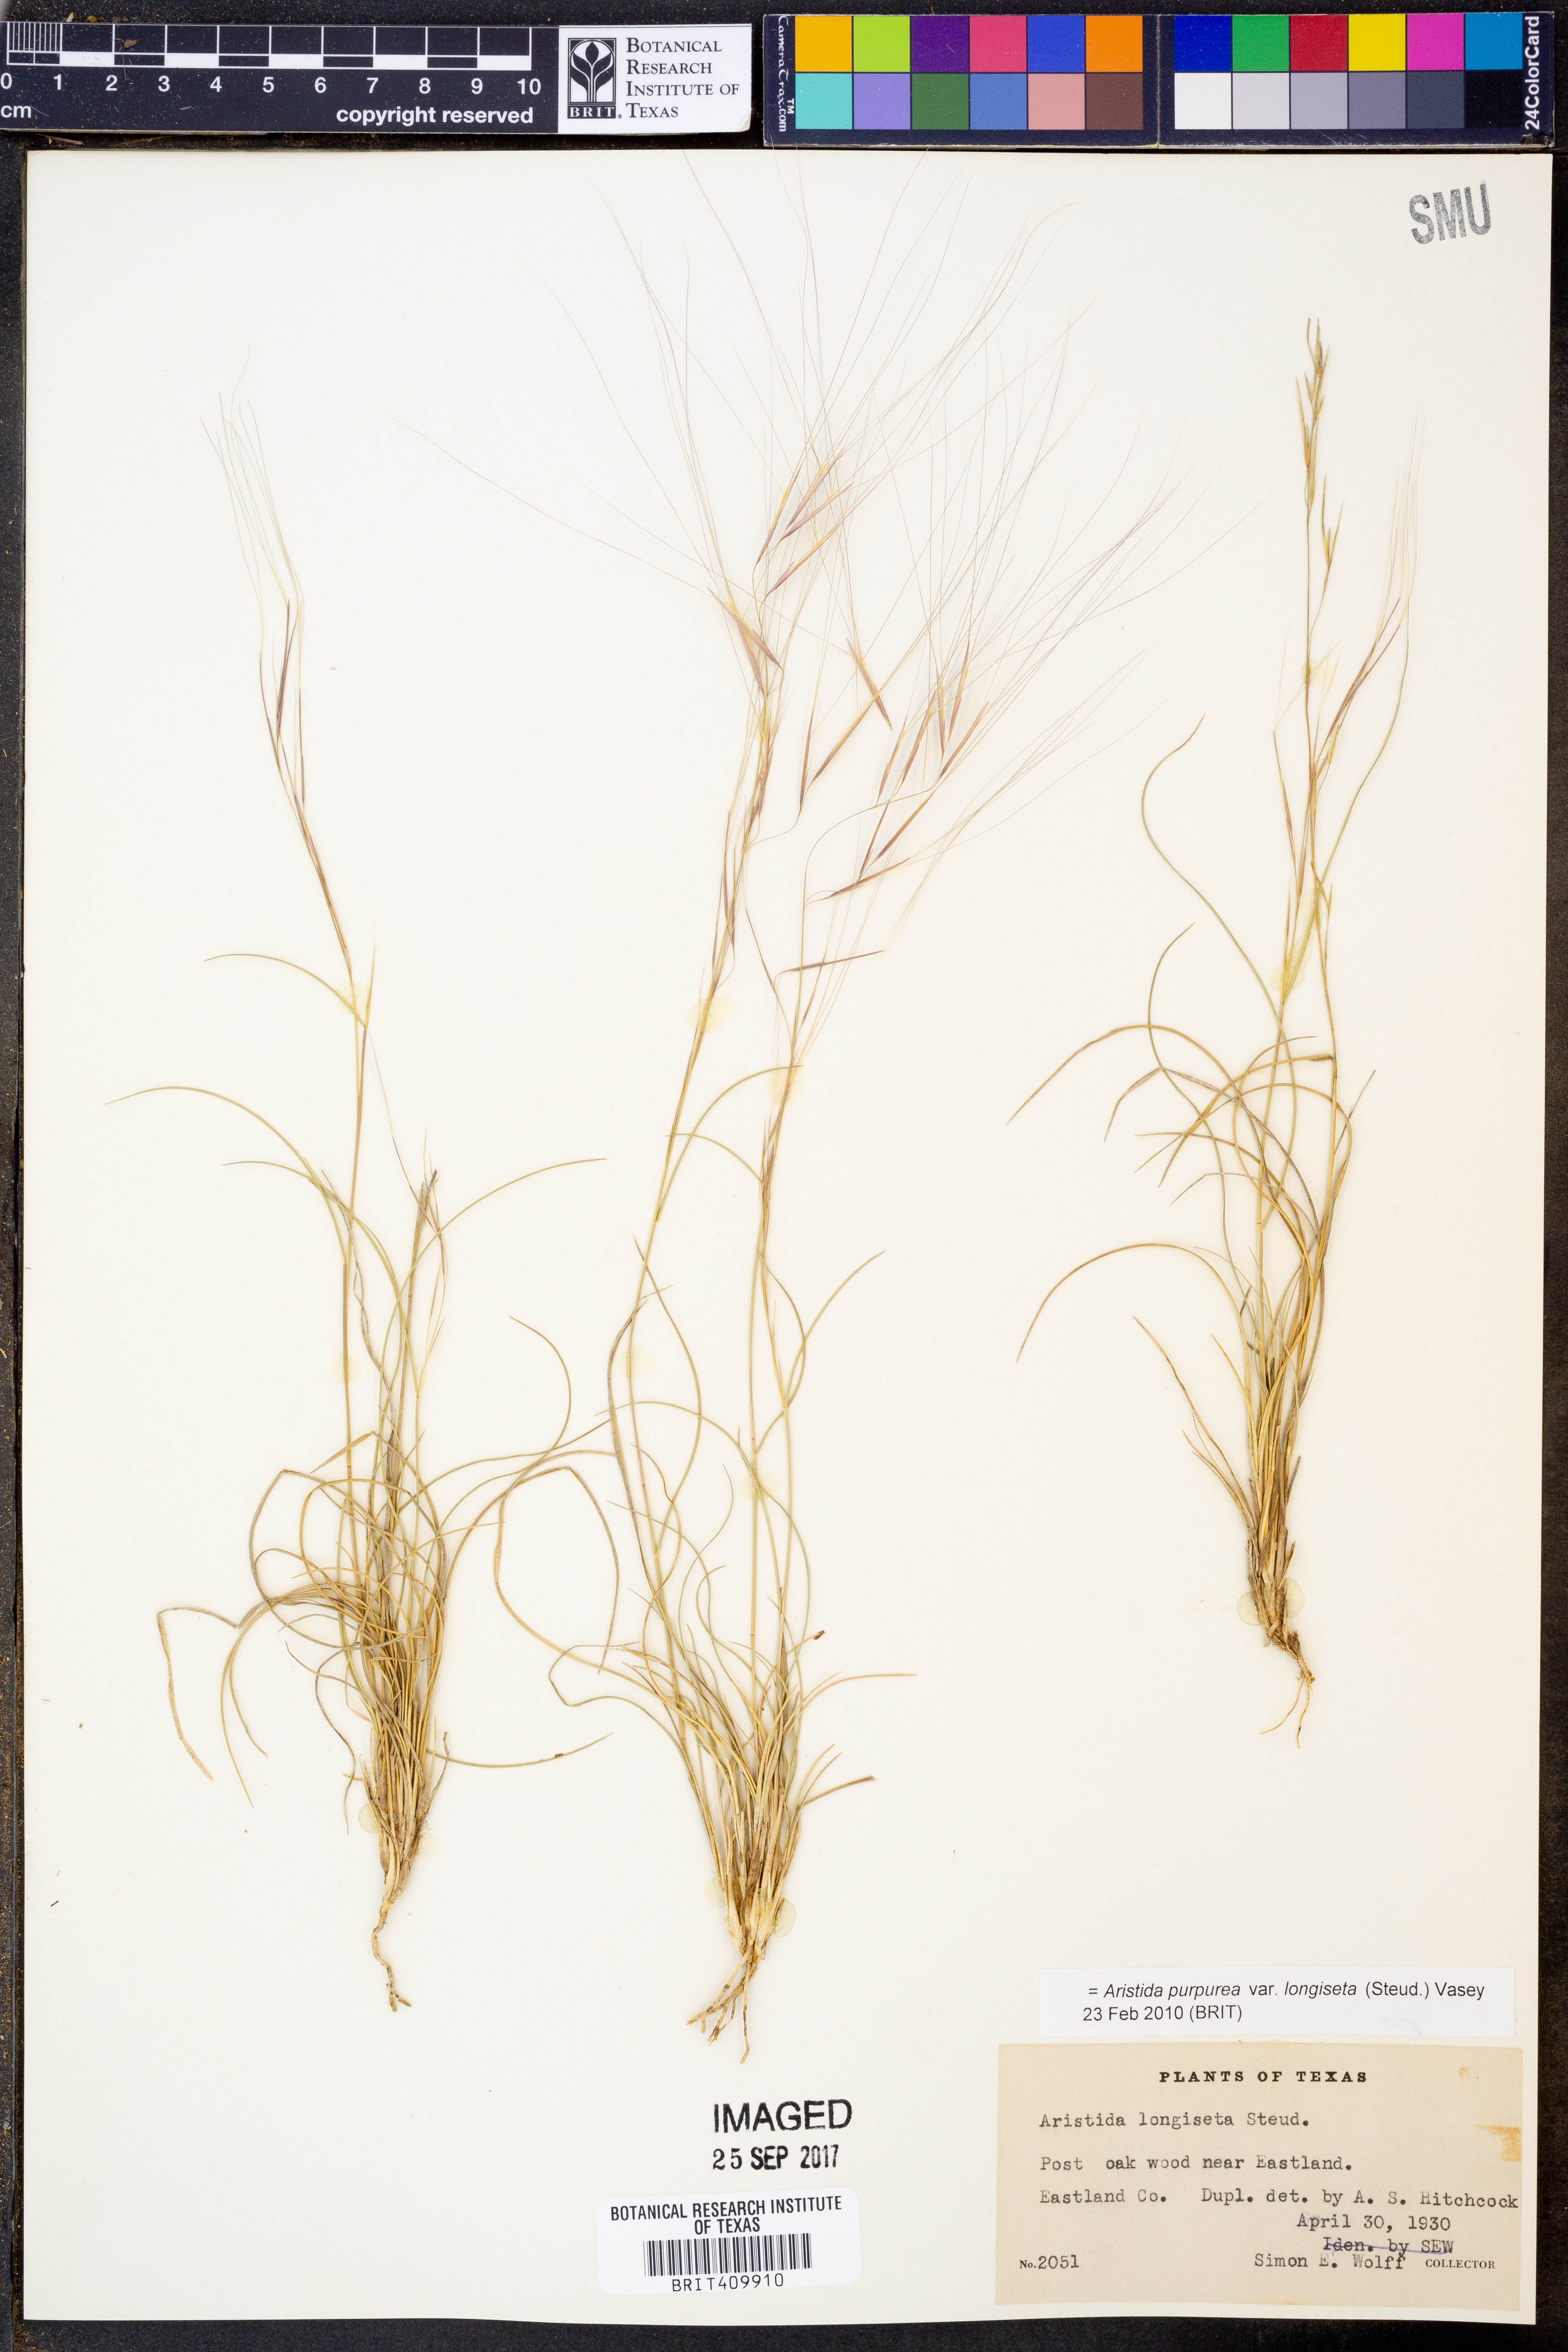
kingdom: Plantae
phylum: Tracheophyta
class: Liliopsida
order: Poales
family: Poaceae
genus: Aristida
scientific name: Aristida longiseta
